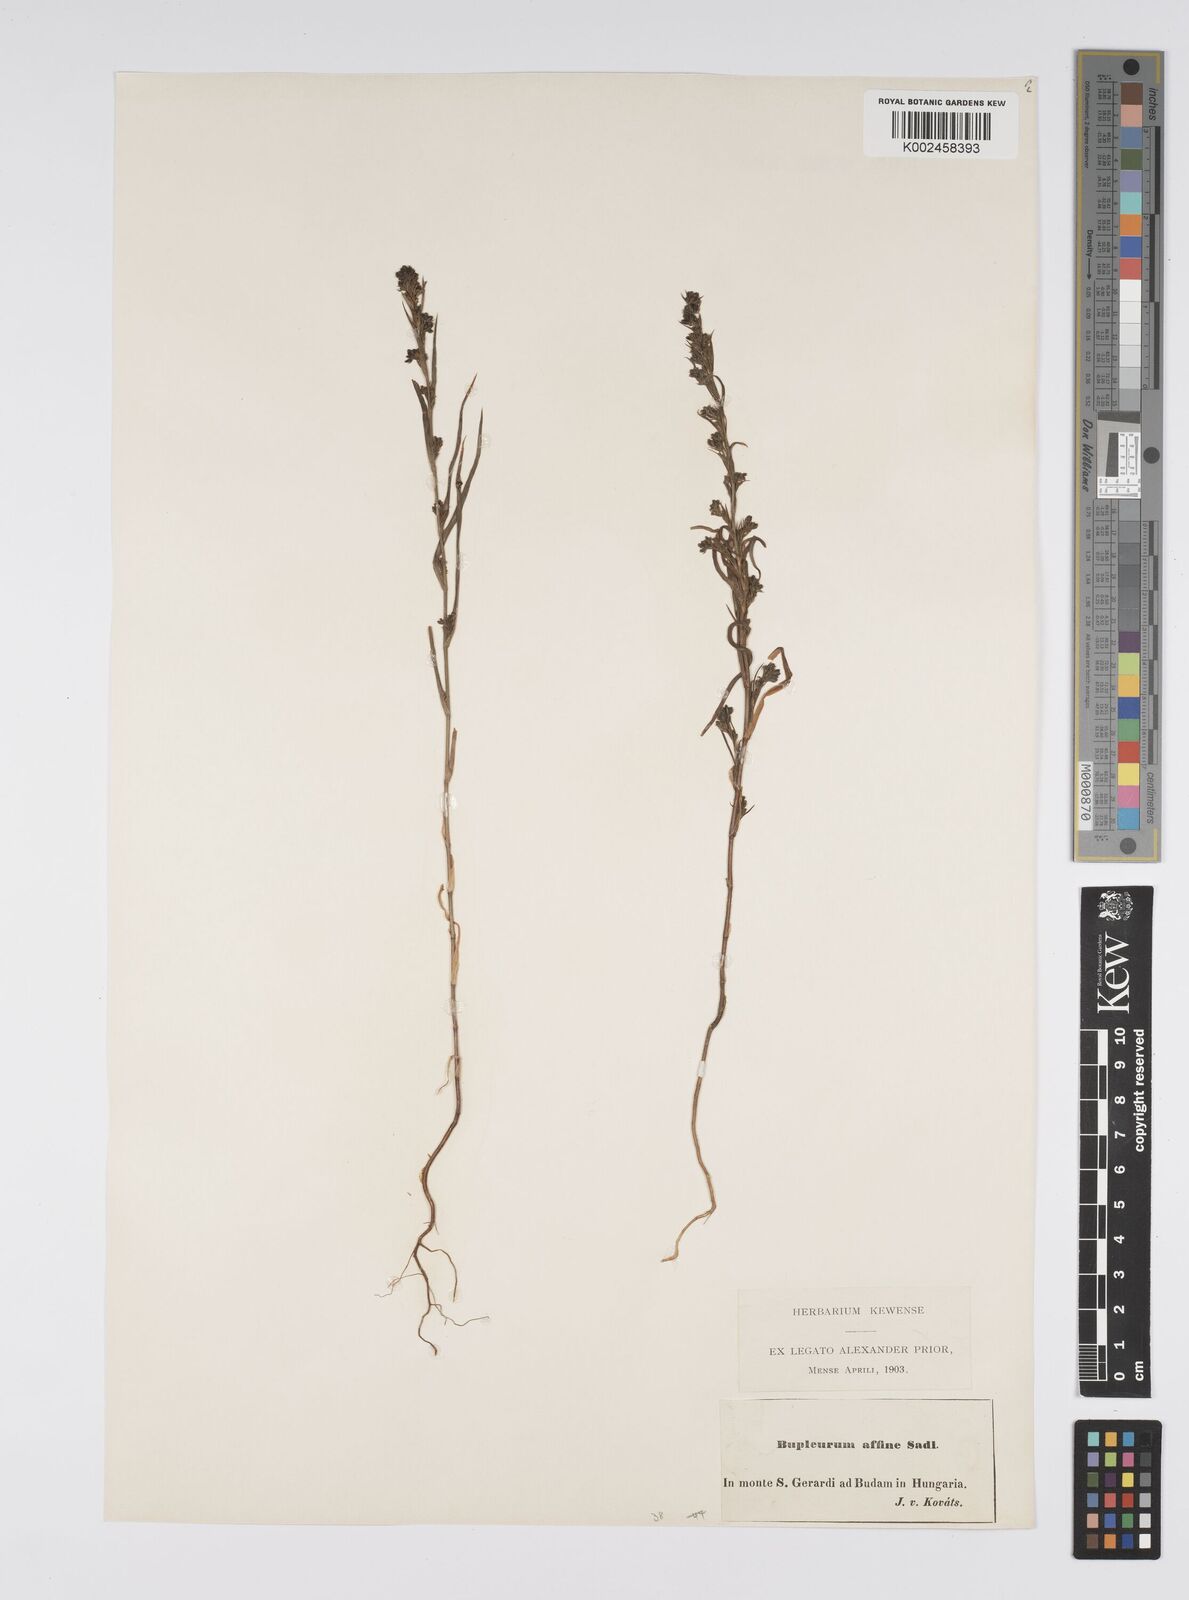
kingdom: Plantae
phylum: Tracheophyta
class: Magnoliopsida
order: Apiales
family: Apiaceae
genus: Bupleurum
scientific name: Bupleurum affine
